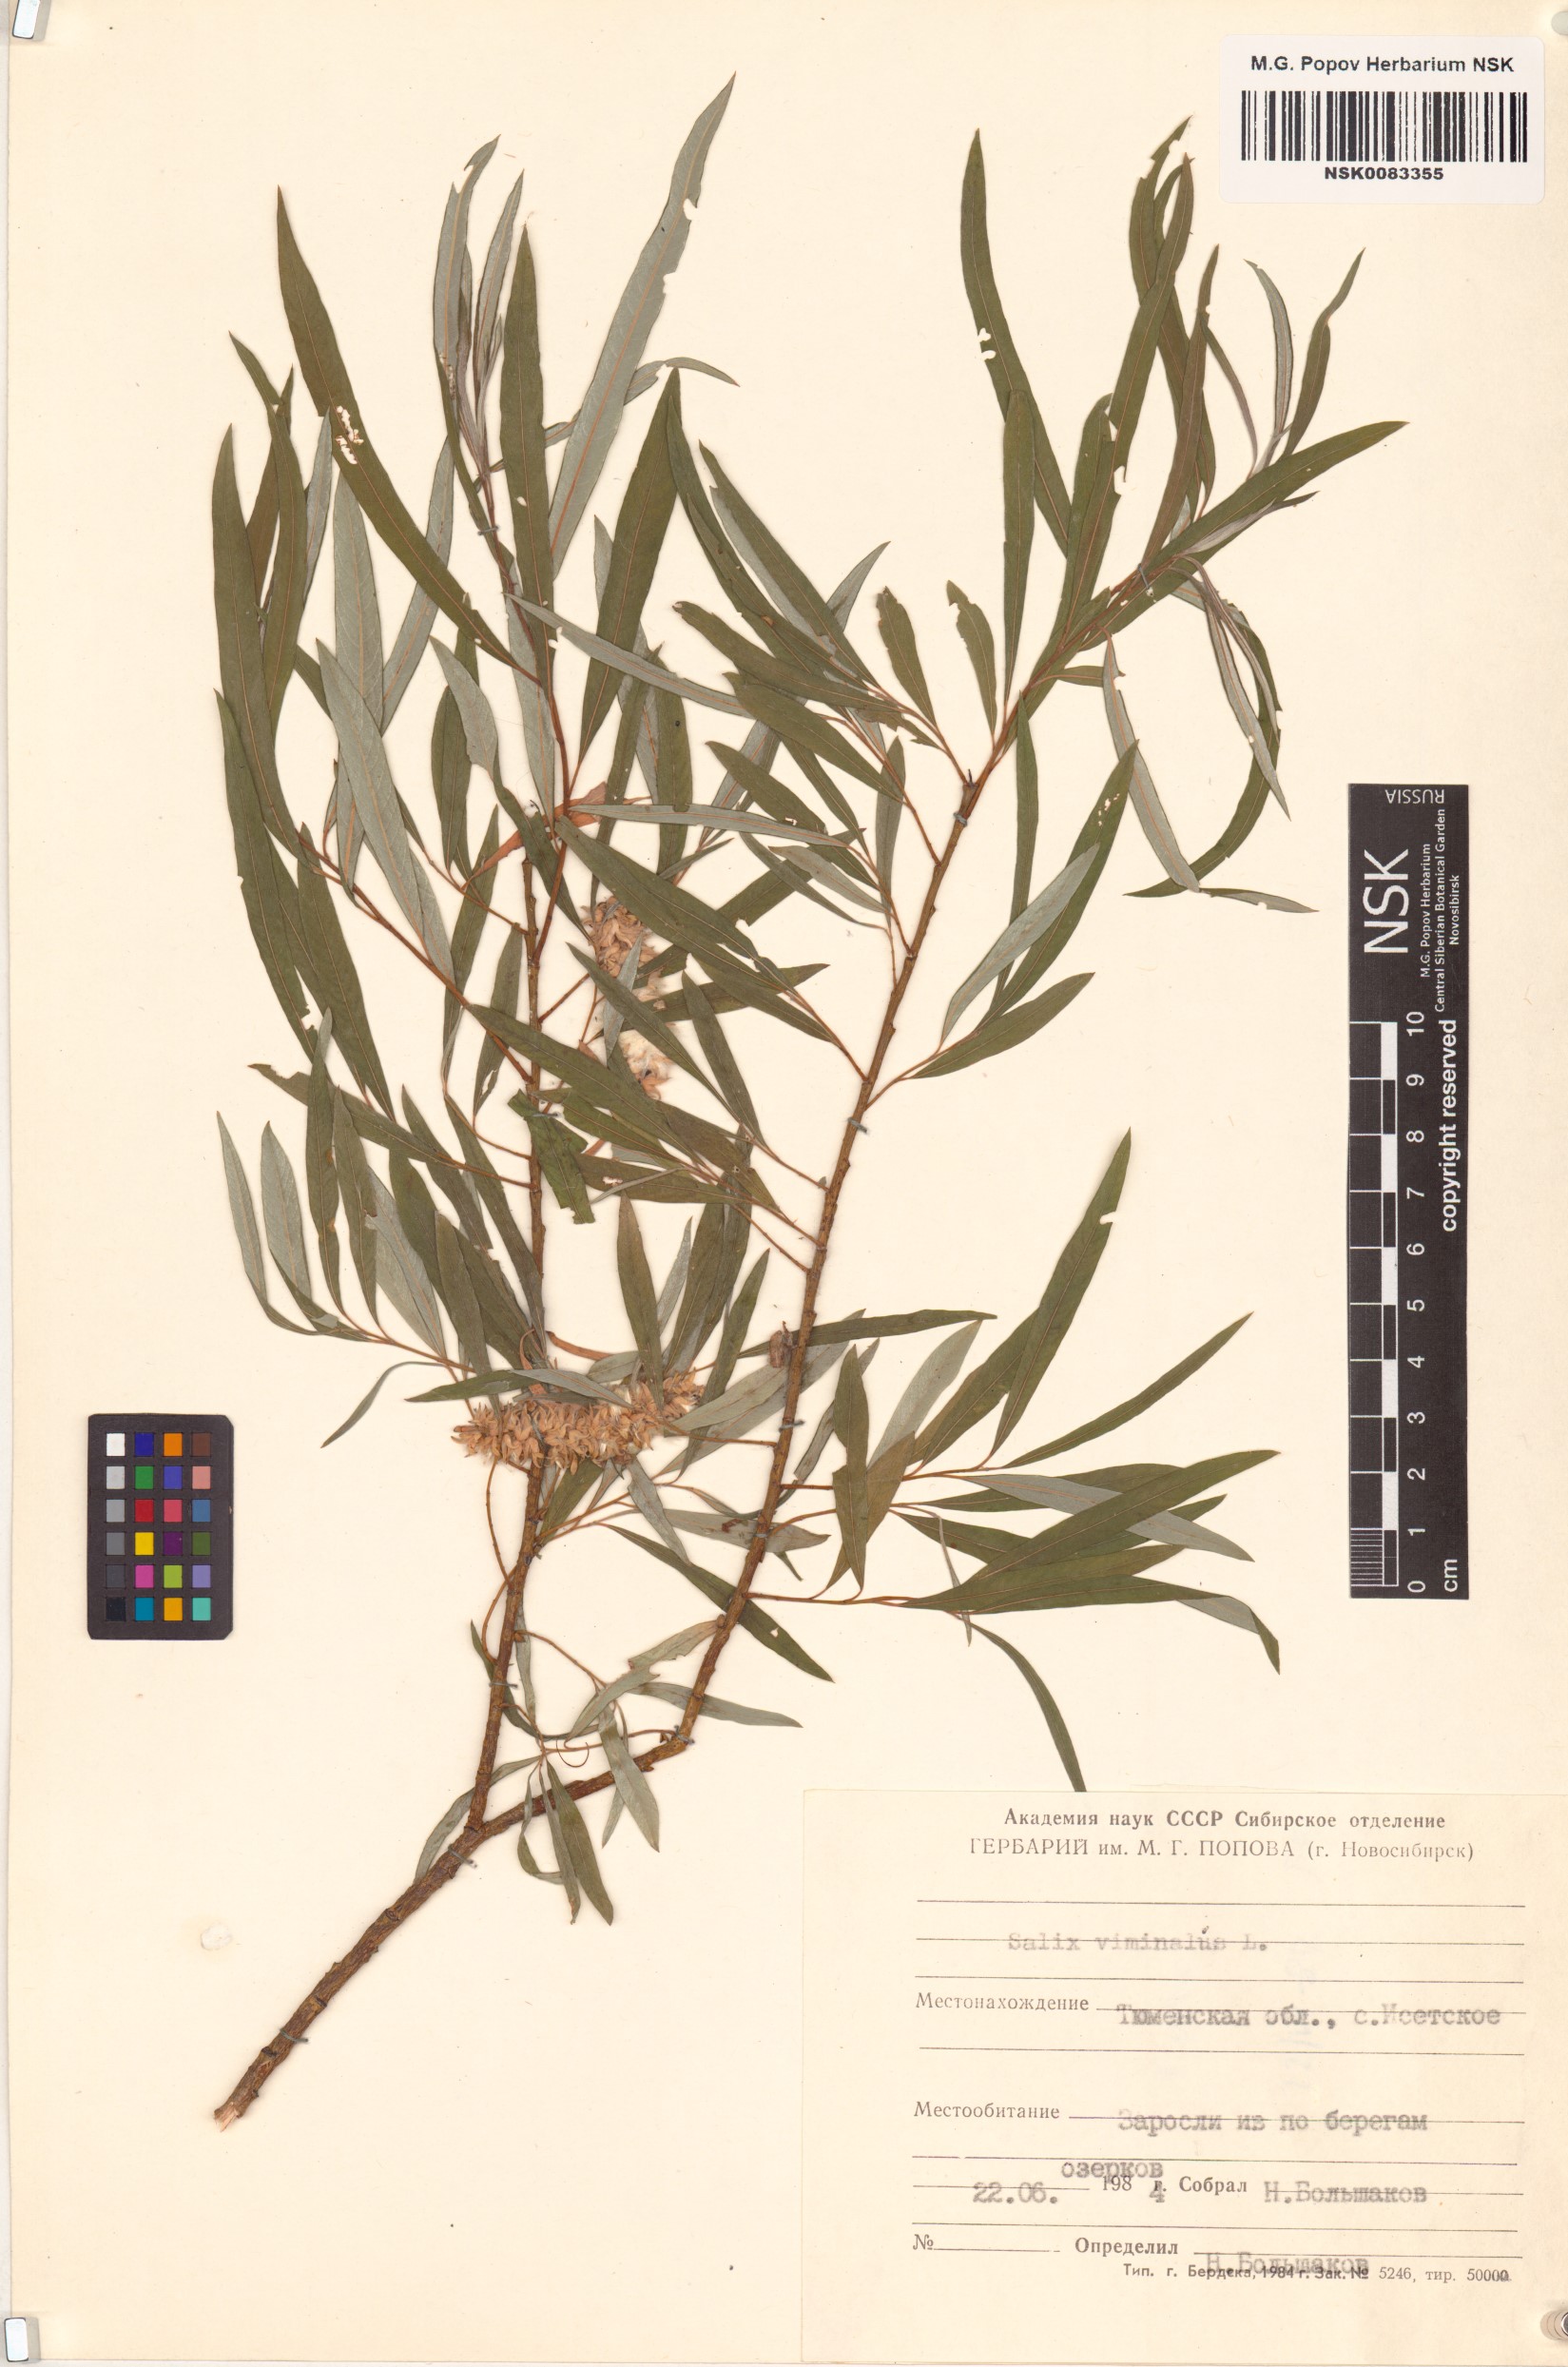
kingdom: Plantae
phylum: Tracheophyta
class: Magnoliopsida
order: Malpighiales
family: Salicaceae
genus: Salix
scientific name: Salix viminalis
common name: Osier
